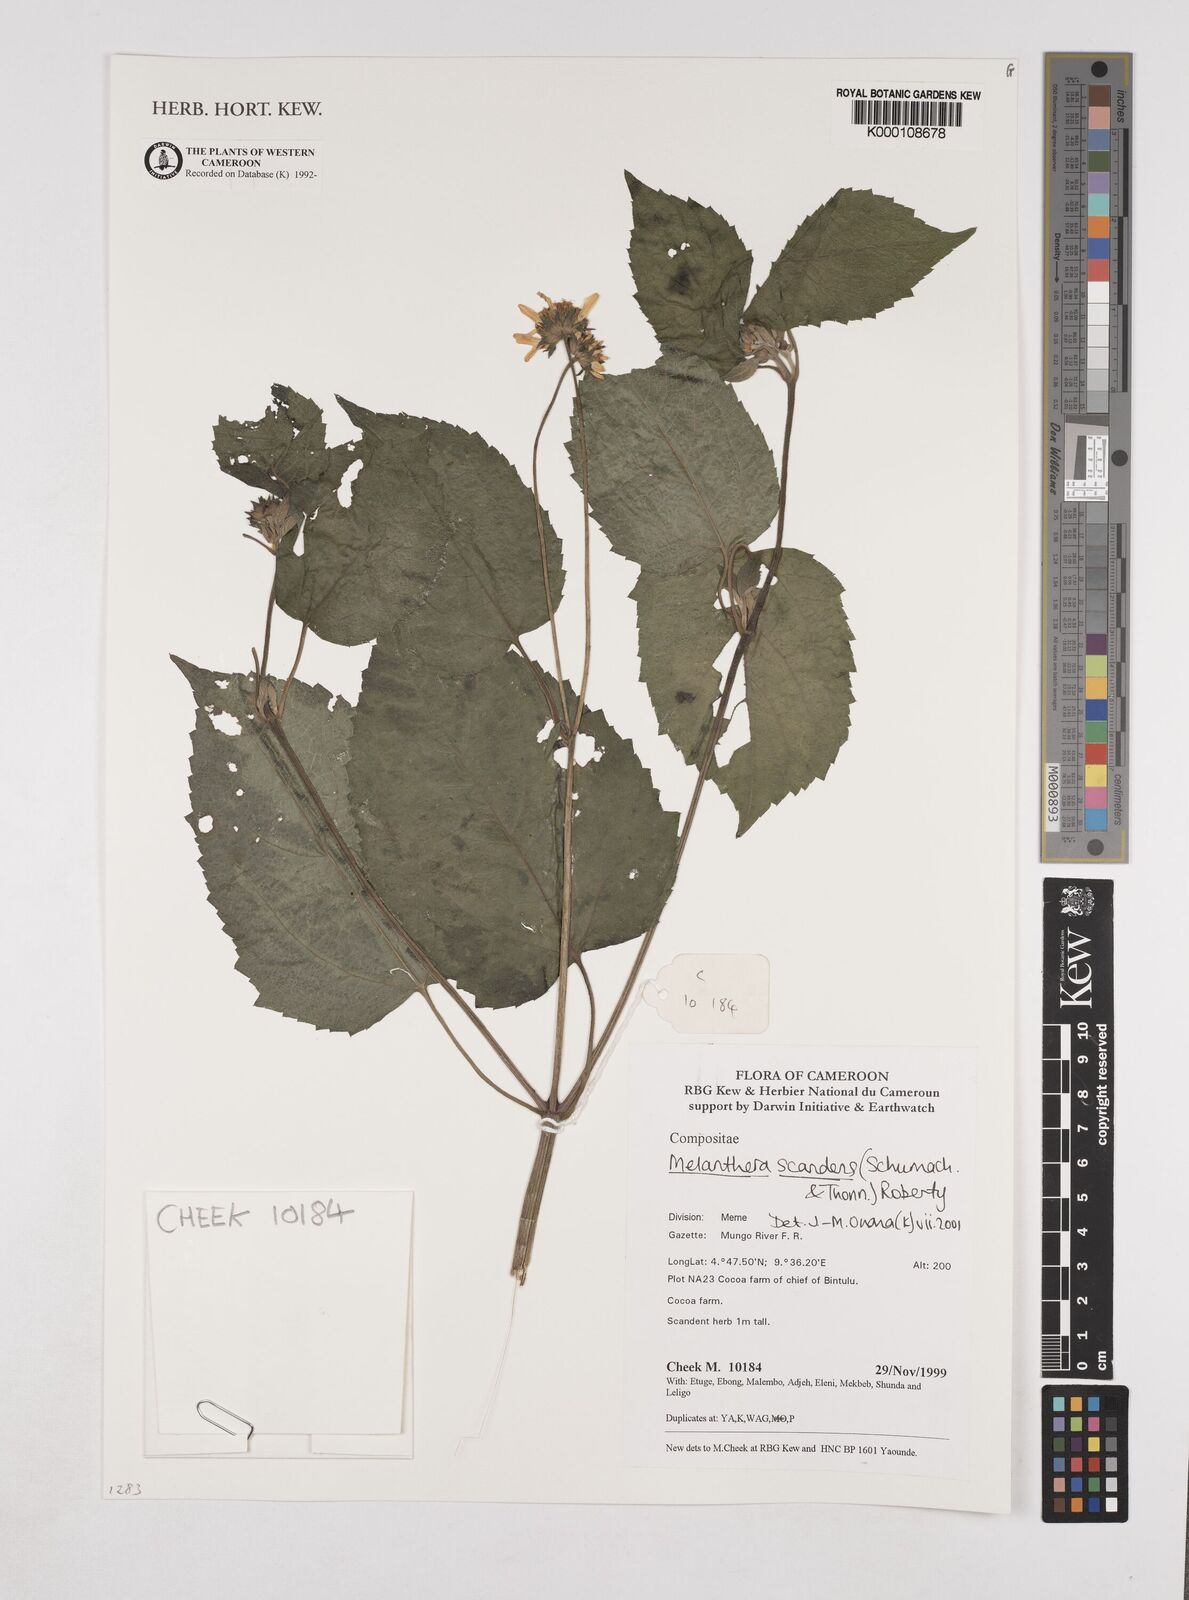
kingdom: Plantae
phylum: Tracheophyta
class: Magnoliopsida
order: Asterales
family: Asteraceae
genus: Melanthera
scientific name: Melanthera
